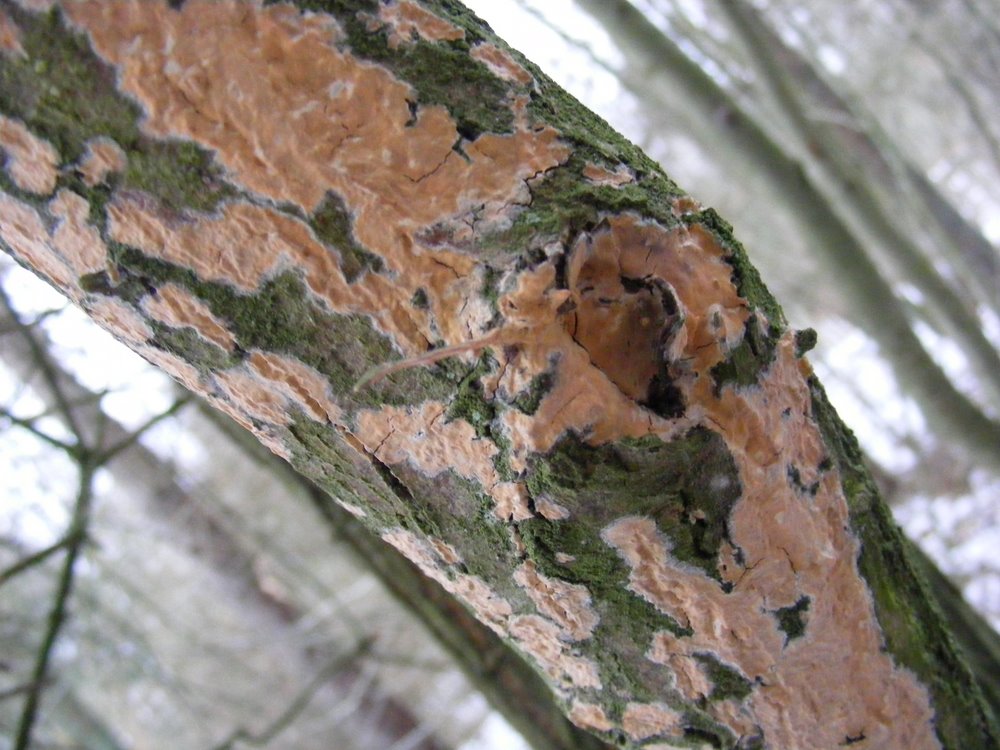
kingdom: Fungi
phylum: Basidiomycota
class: Agaricomycetes
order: Russulales
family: Peniophoraceae
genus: Peniophora
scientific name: Peniophora incarnata
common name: laksefarvet voksskind
